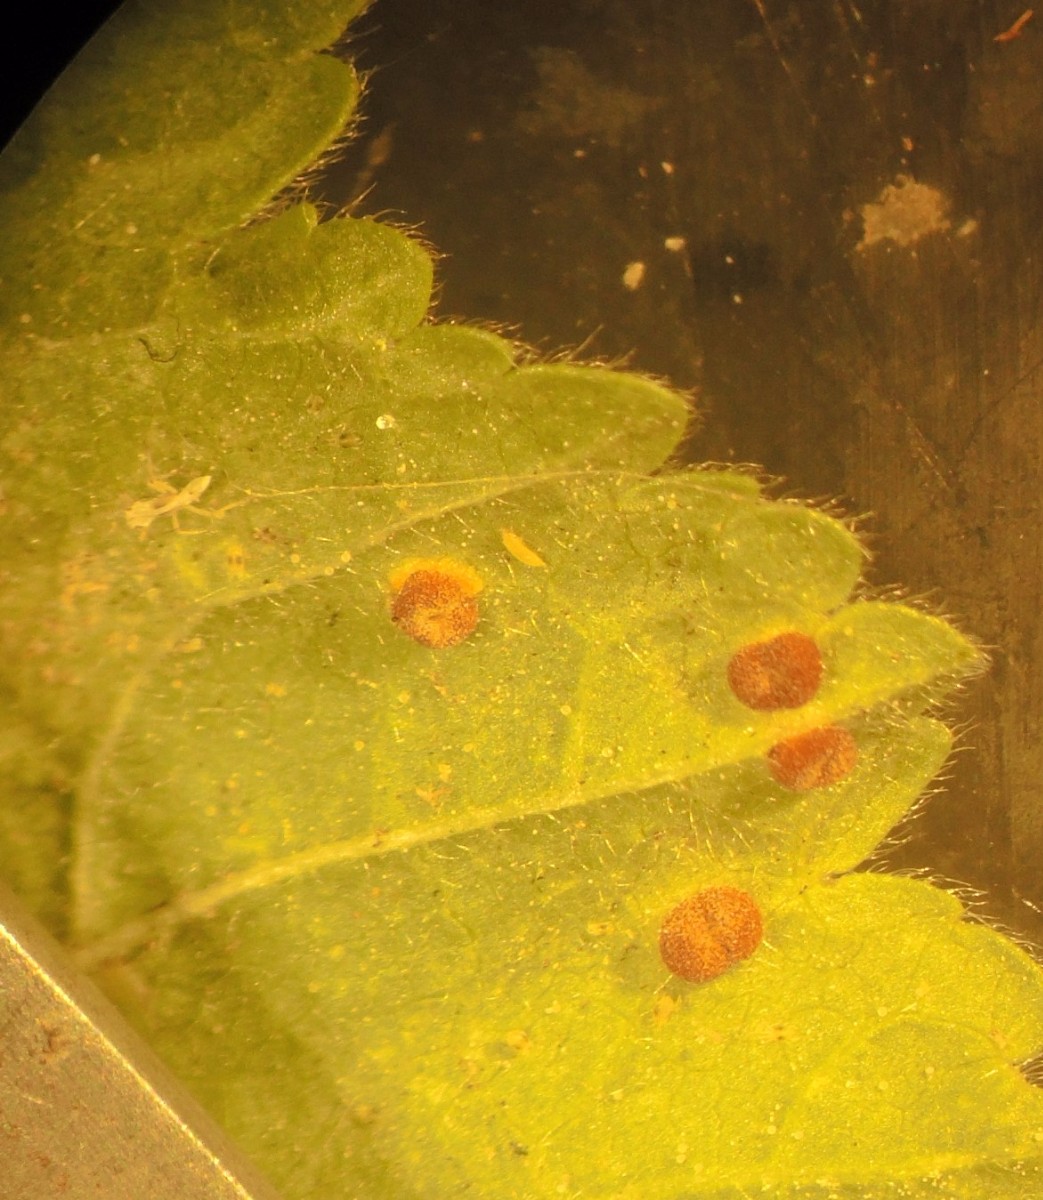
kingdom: Fungi
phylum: Basidiomycota
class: Pucciniomycetes
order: Pucciniales
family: Pucciniaceae
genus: Puccinia
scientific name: Puccinia malvacearum
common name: stokrose-tvecellerust
